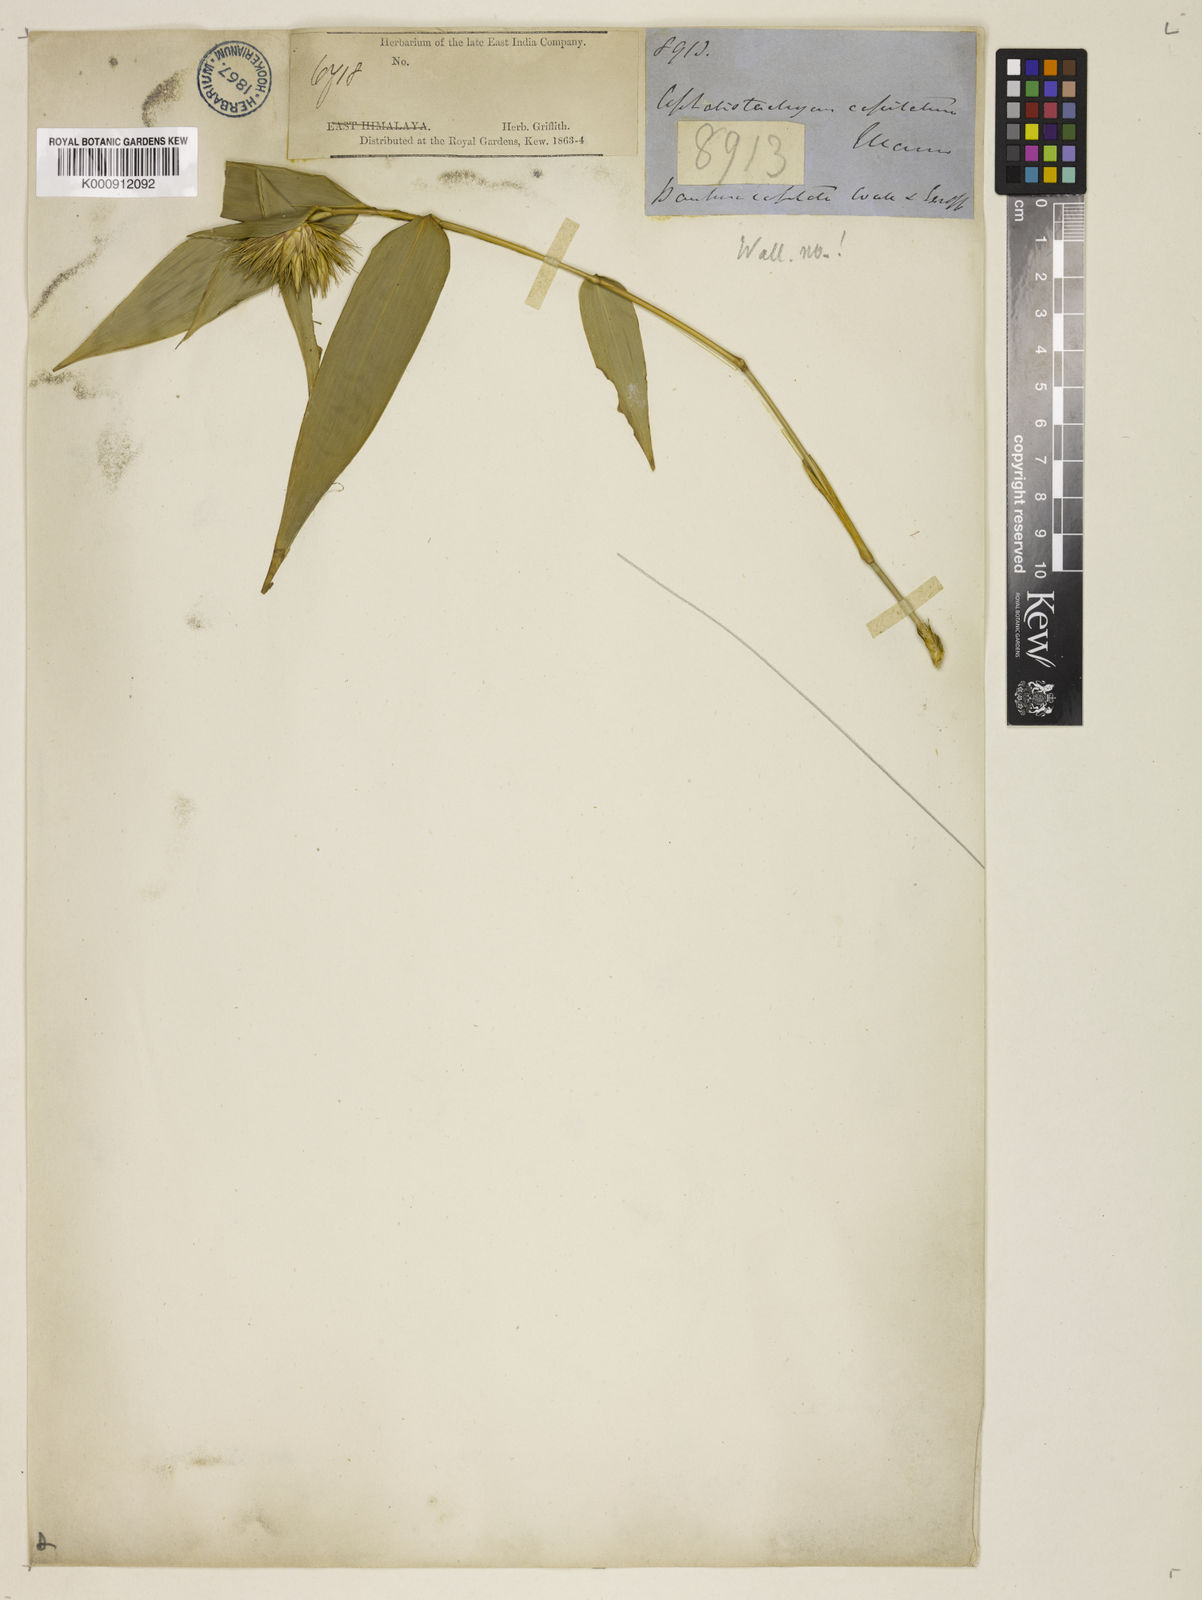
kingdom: Plantae
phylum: Tracheophyta
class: Liliopsida
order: Poales
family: Poaceae
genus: Cephalostachyum
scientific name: Cephalostachyum capitatum
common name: Hollow bamboo
